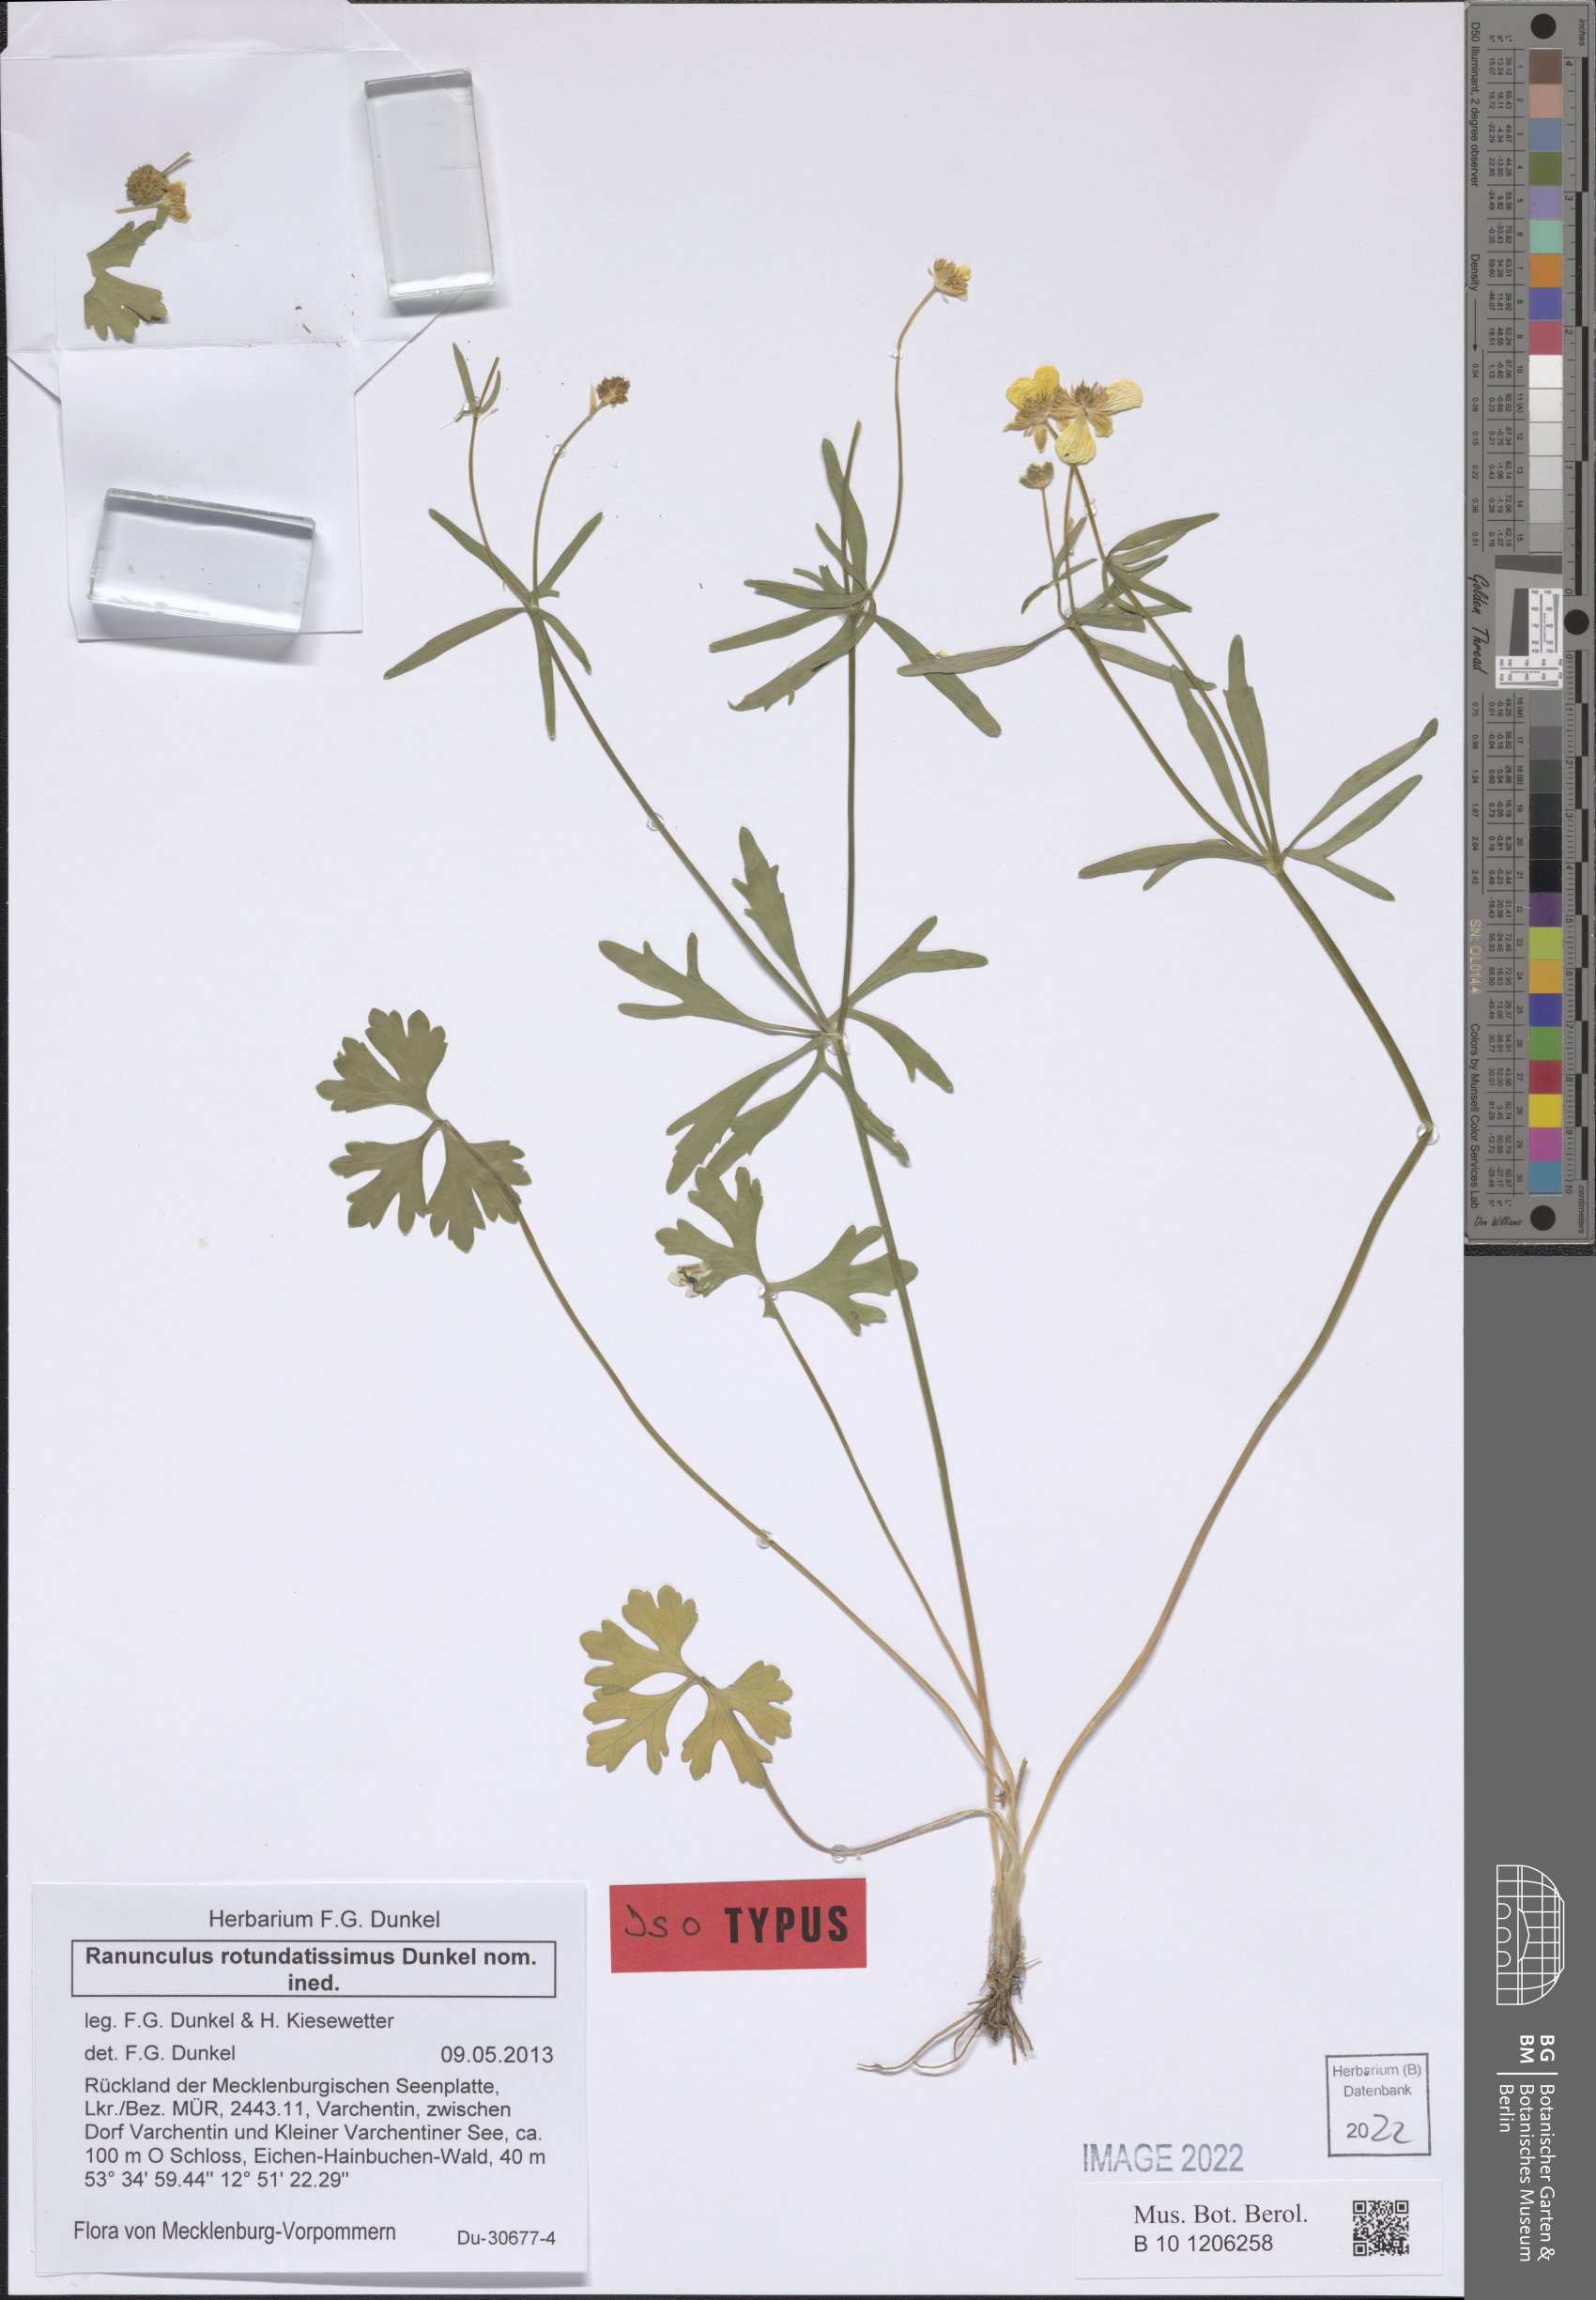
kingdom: Plantae
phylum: Tracheophyta
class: Magnoliopsida
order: Ranunculales
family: Ranunculaceae
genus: Ranunculus
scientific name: Ranunculus rotundatissimus
